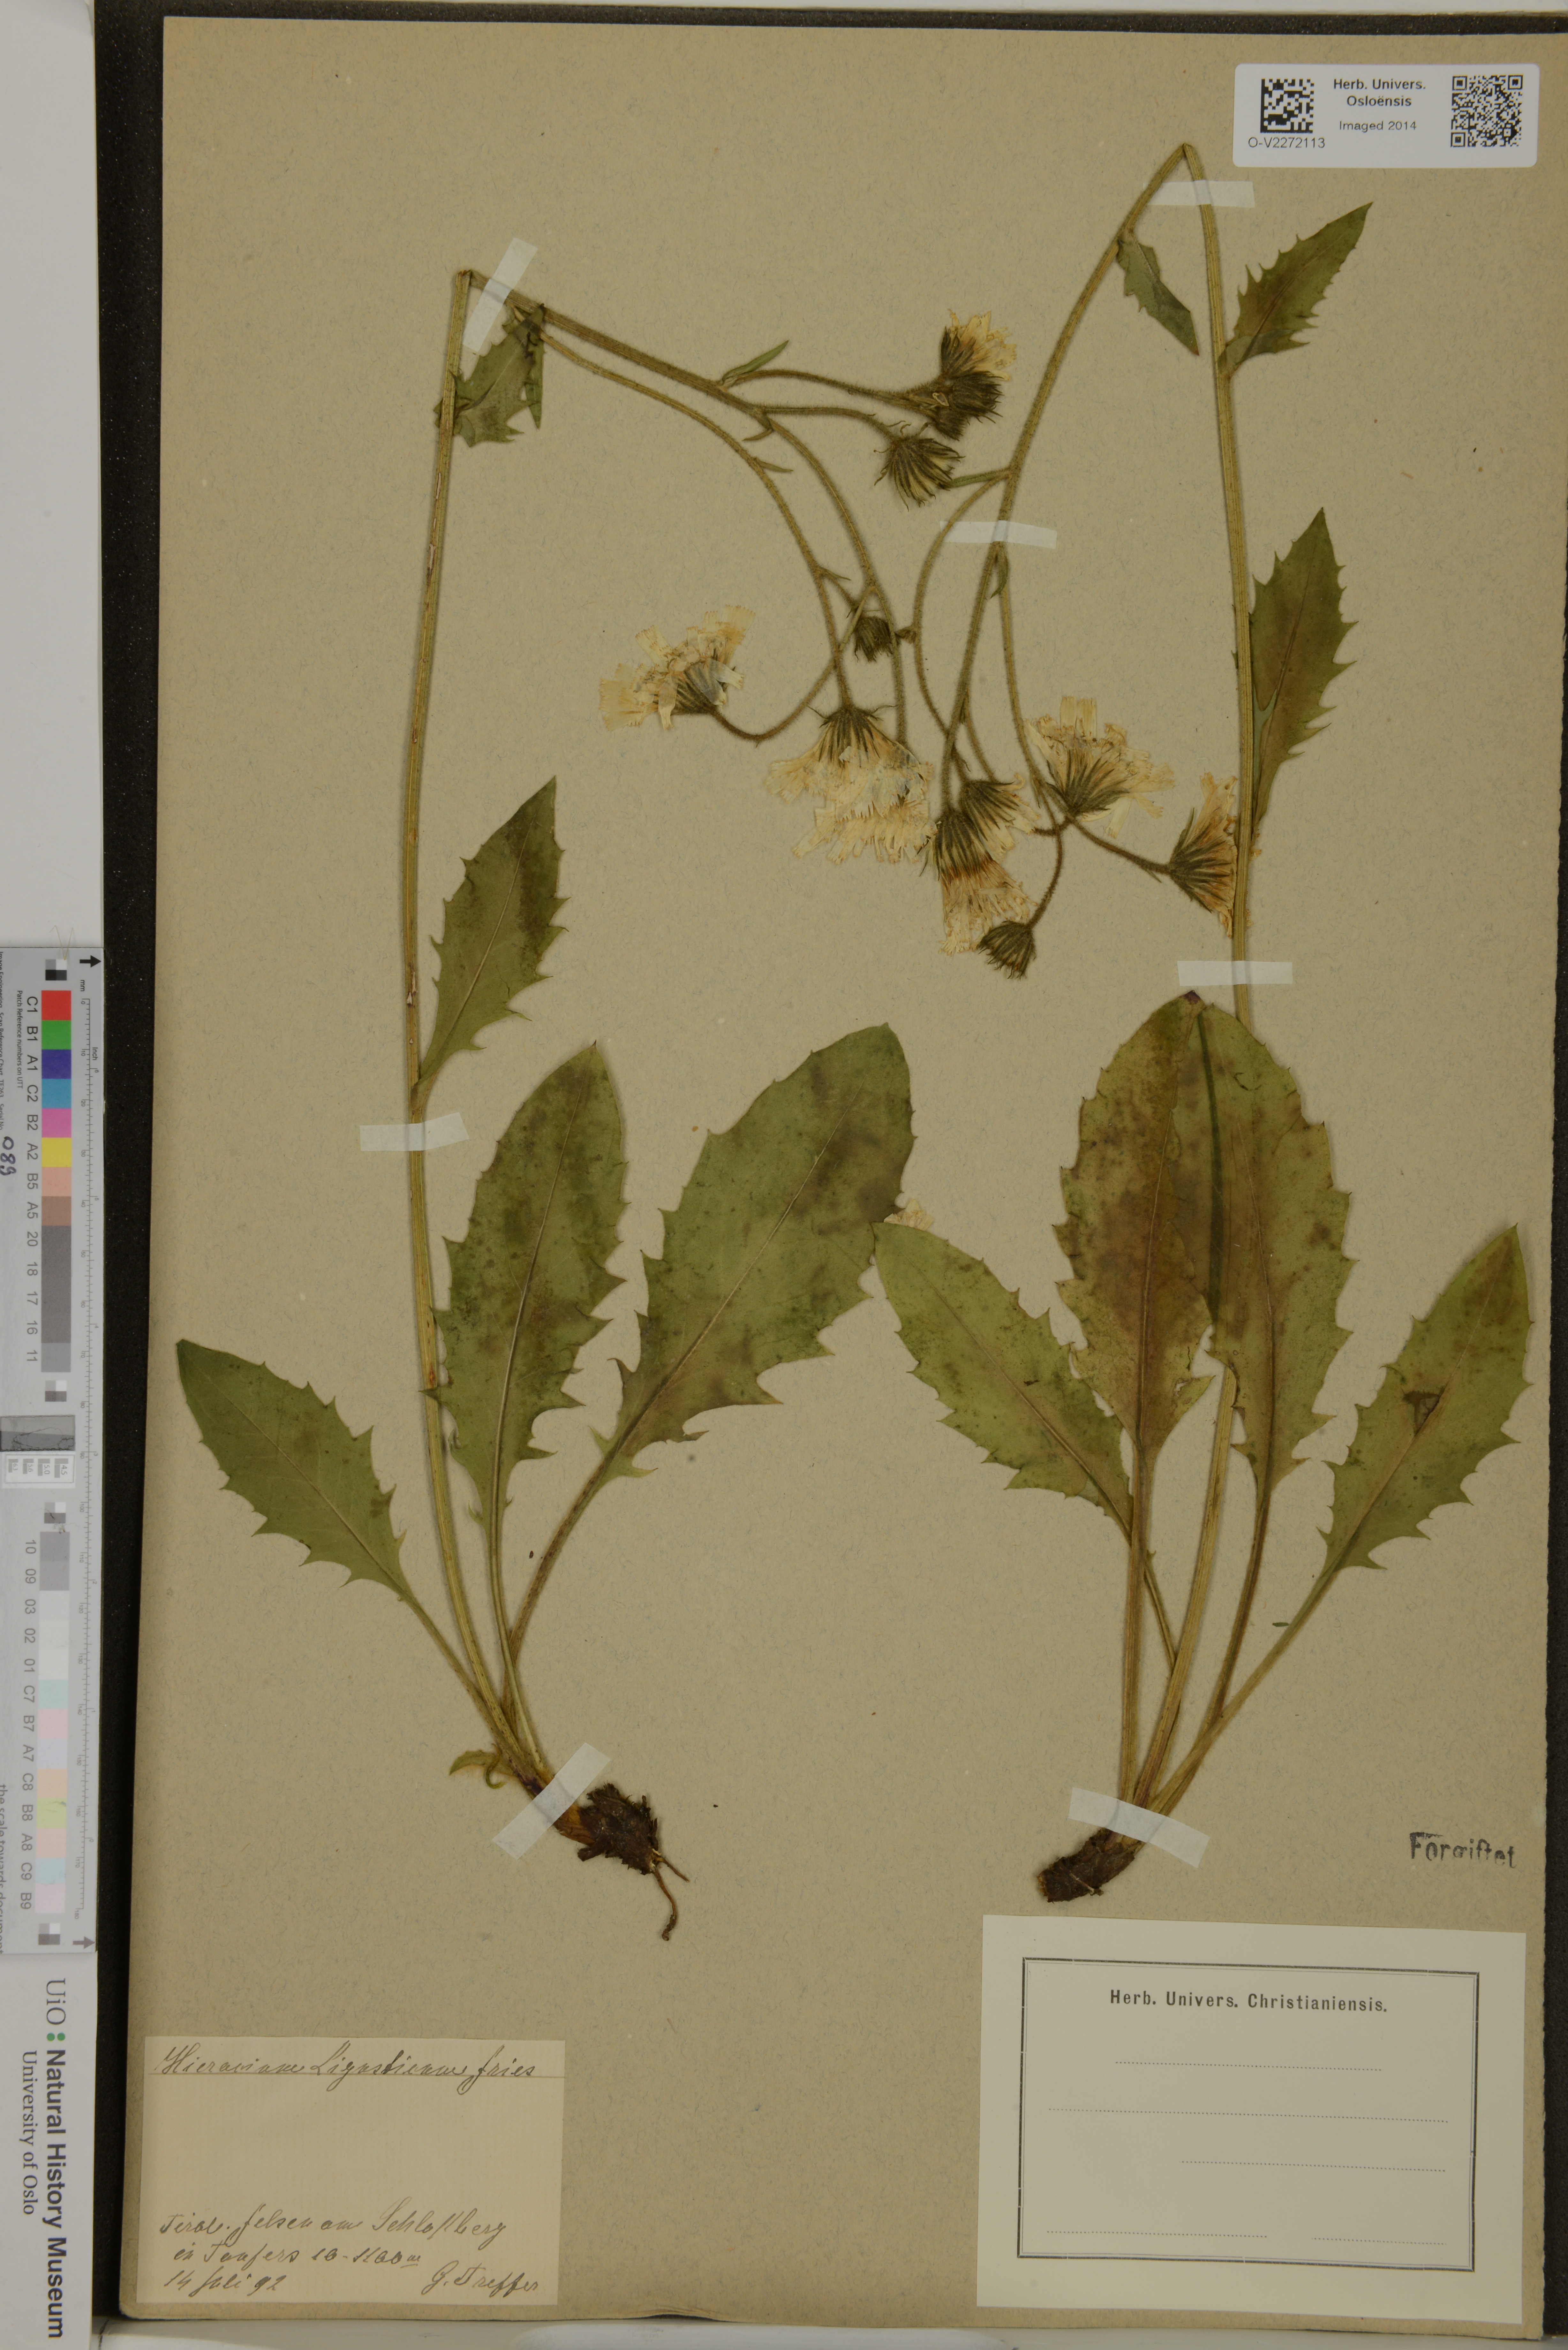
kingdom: Plantae
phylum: Tracheophyta
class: Magnoliopsida
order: Asterales
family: Asteraceae
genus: Hieracium
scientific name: Hieracium ligusticum
